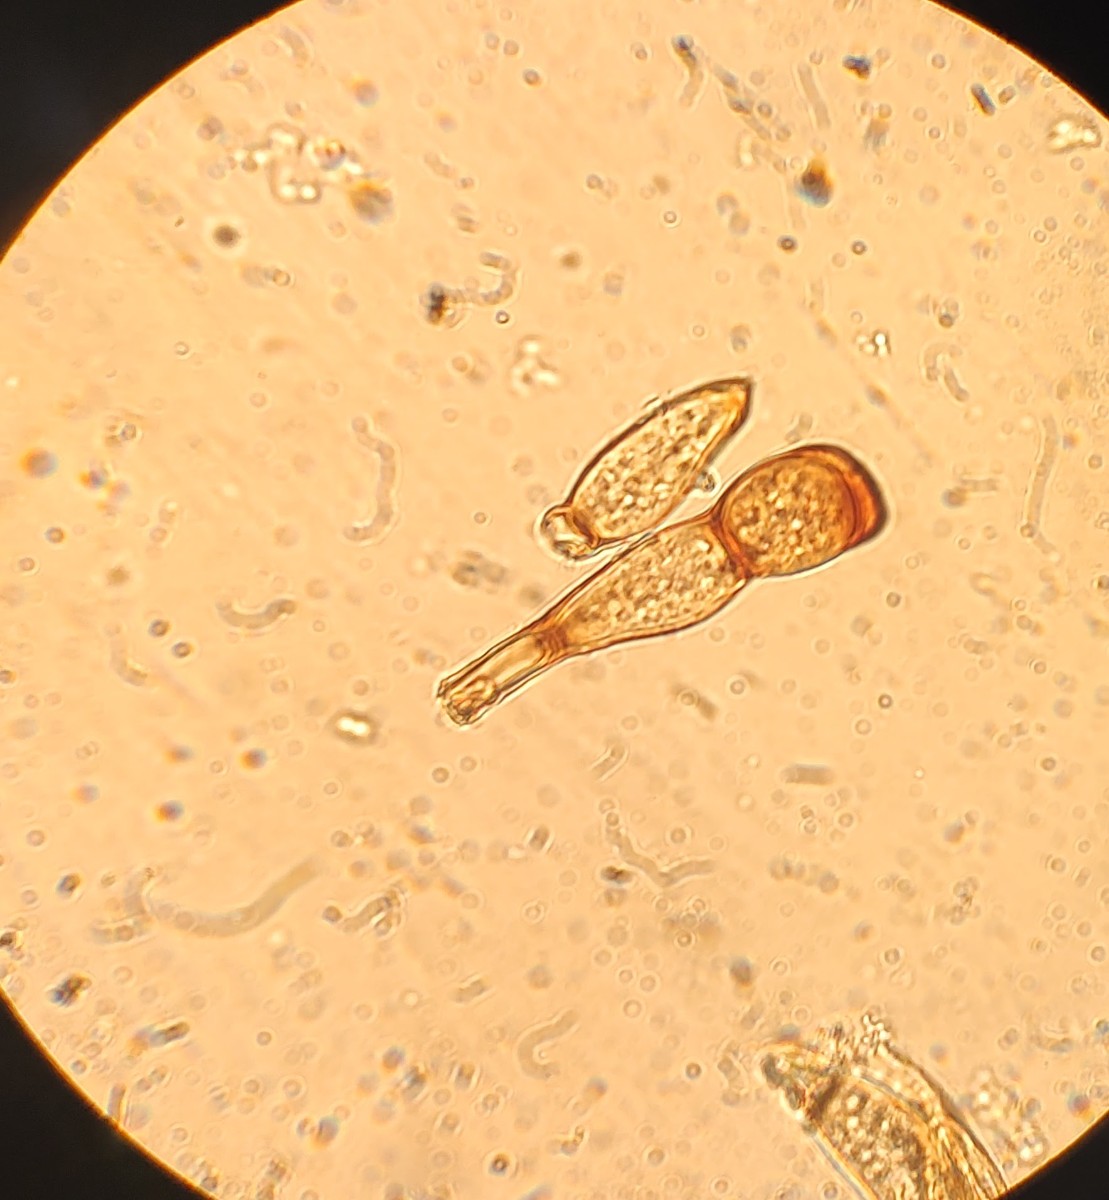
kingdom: Fungi
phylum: Basidiomycota
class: Pucciniomycetes
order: Pucciniales
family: Pucciniaceae
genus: Puccinia
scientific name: Puccinia caricina
